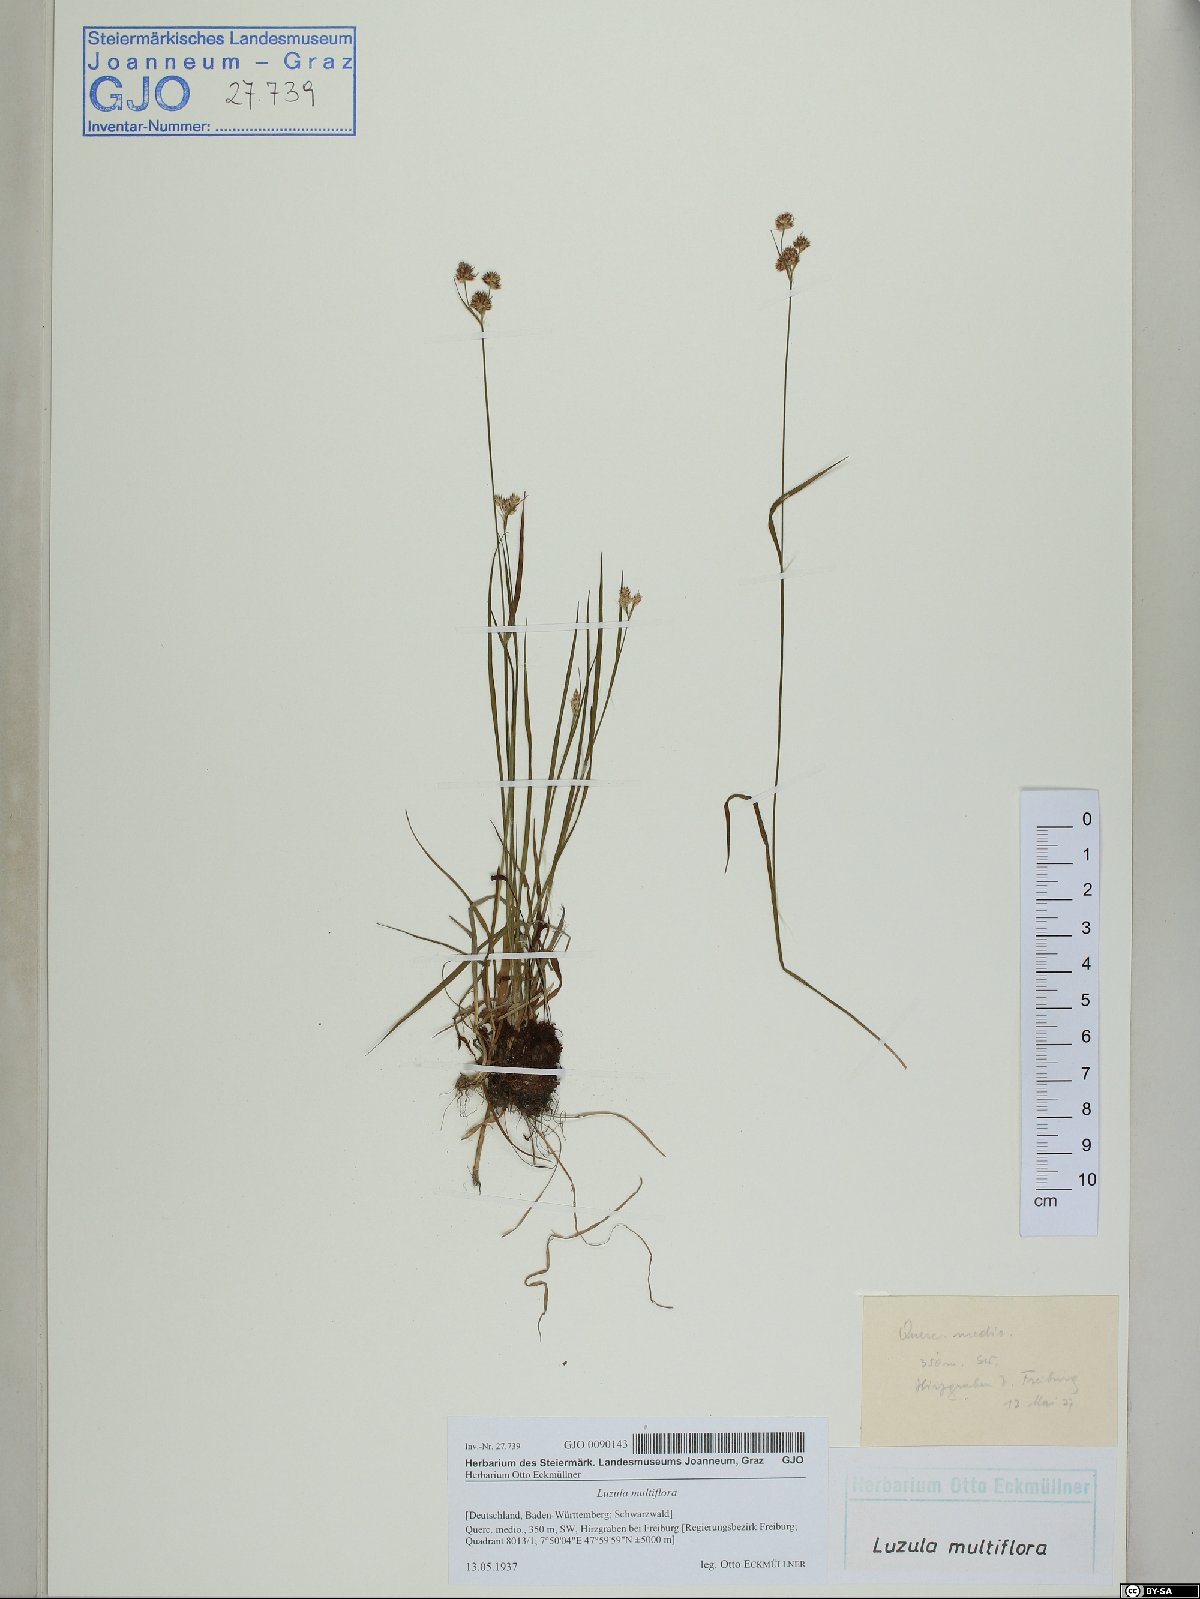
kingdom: Plantae
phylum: Tracheophyta
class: Liliopsida
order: Poales
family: Juncaceae
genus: Luzula
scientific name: Luzula multiflora
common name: Heath wood-rush
